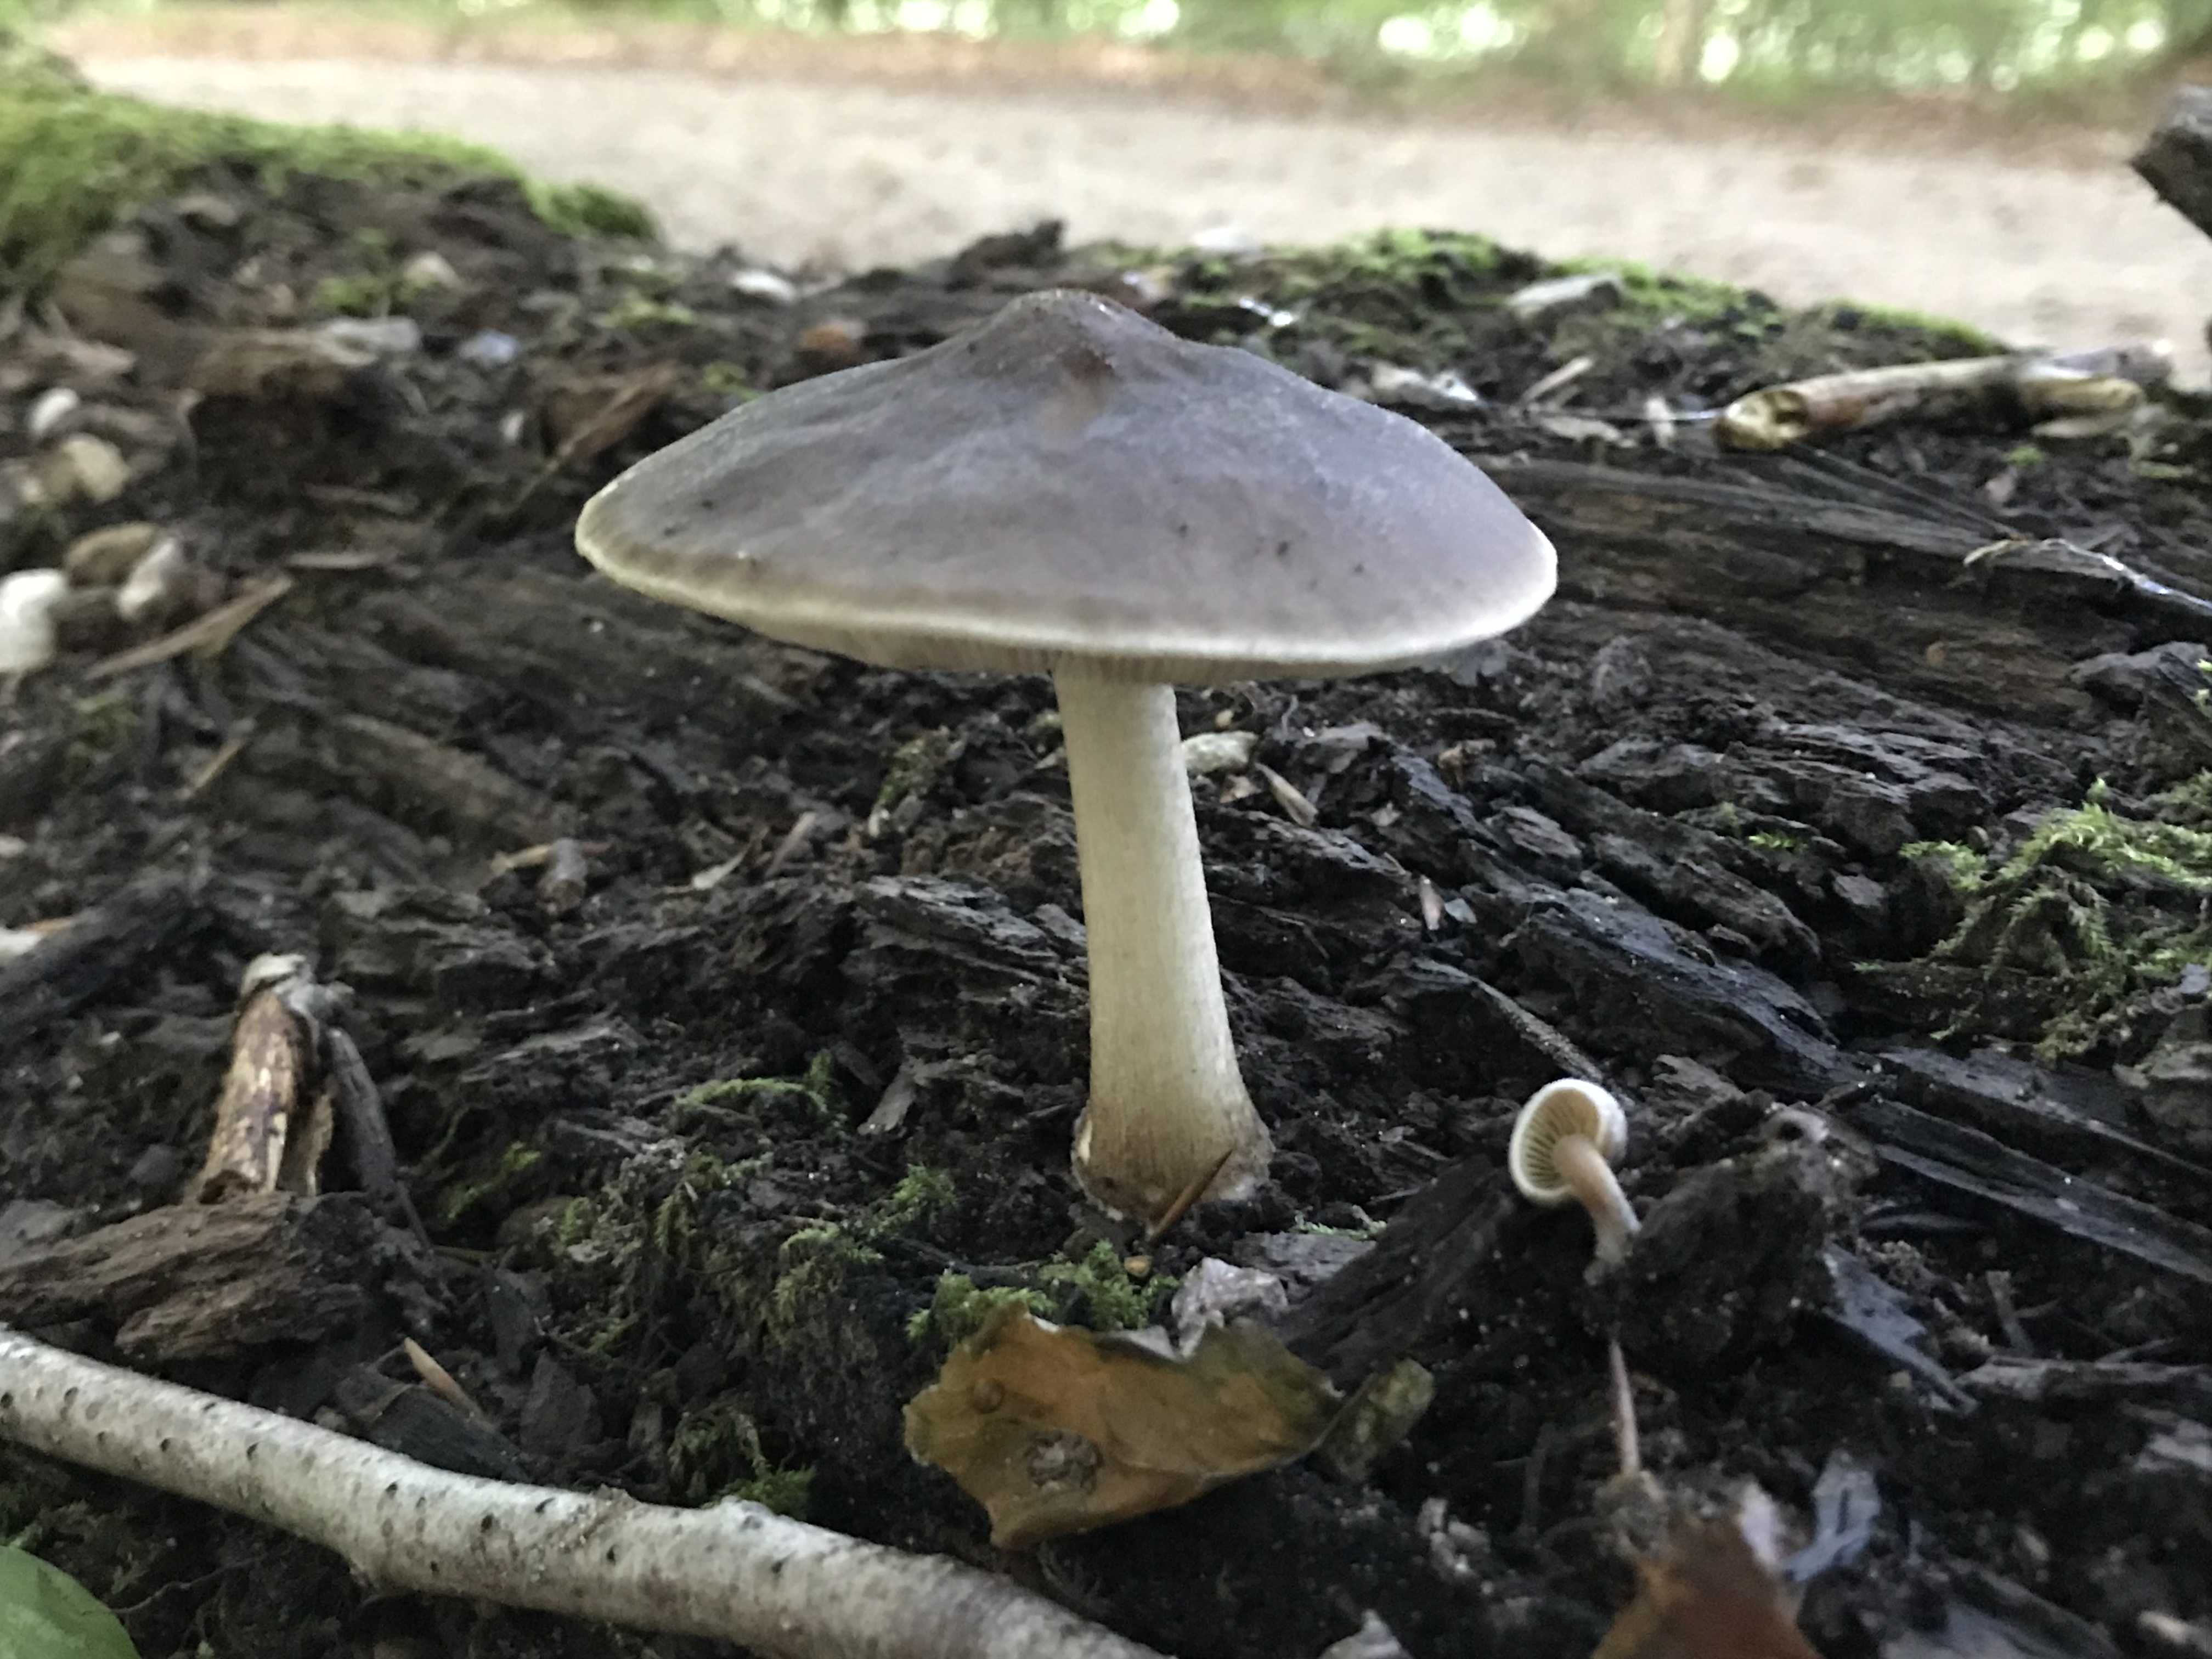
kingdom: Fungi
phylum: Basidiomycota
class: Agaricomycetes
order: Agaricales
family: Pluteaceae
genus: Pluteus
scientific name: Pluteus cervinus
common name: sodfarvet skærmhat
